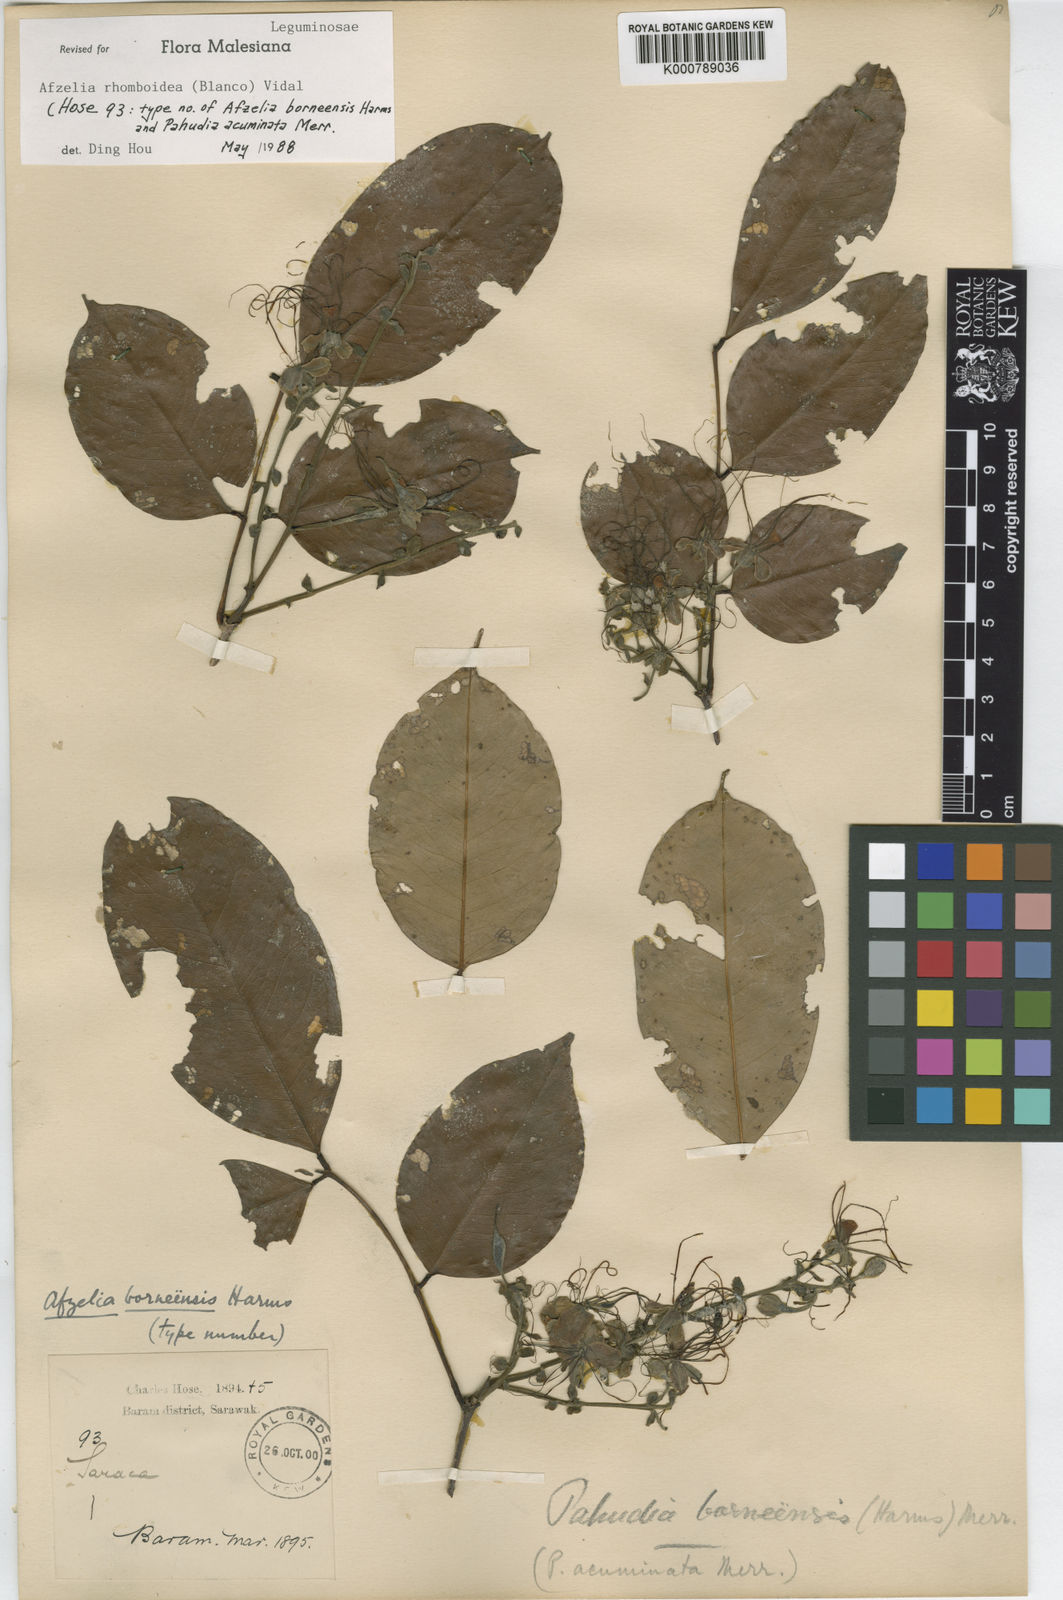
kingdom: Plantae
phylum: Tracheophyta
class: Magnoliopsida
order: Fabales
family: Fabaceae
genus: Afzelia
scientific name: Afzelia rhomboidea
